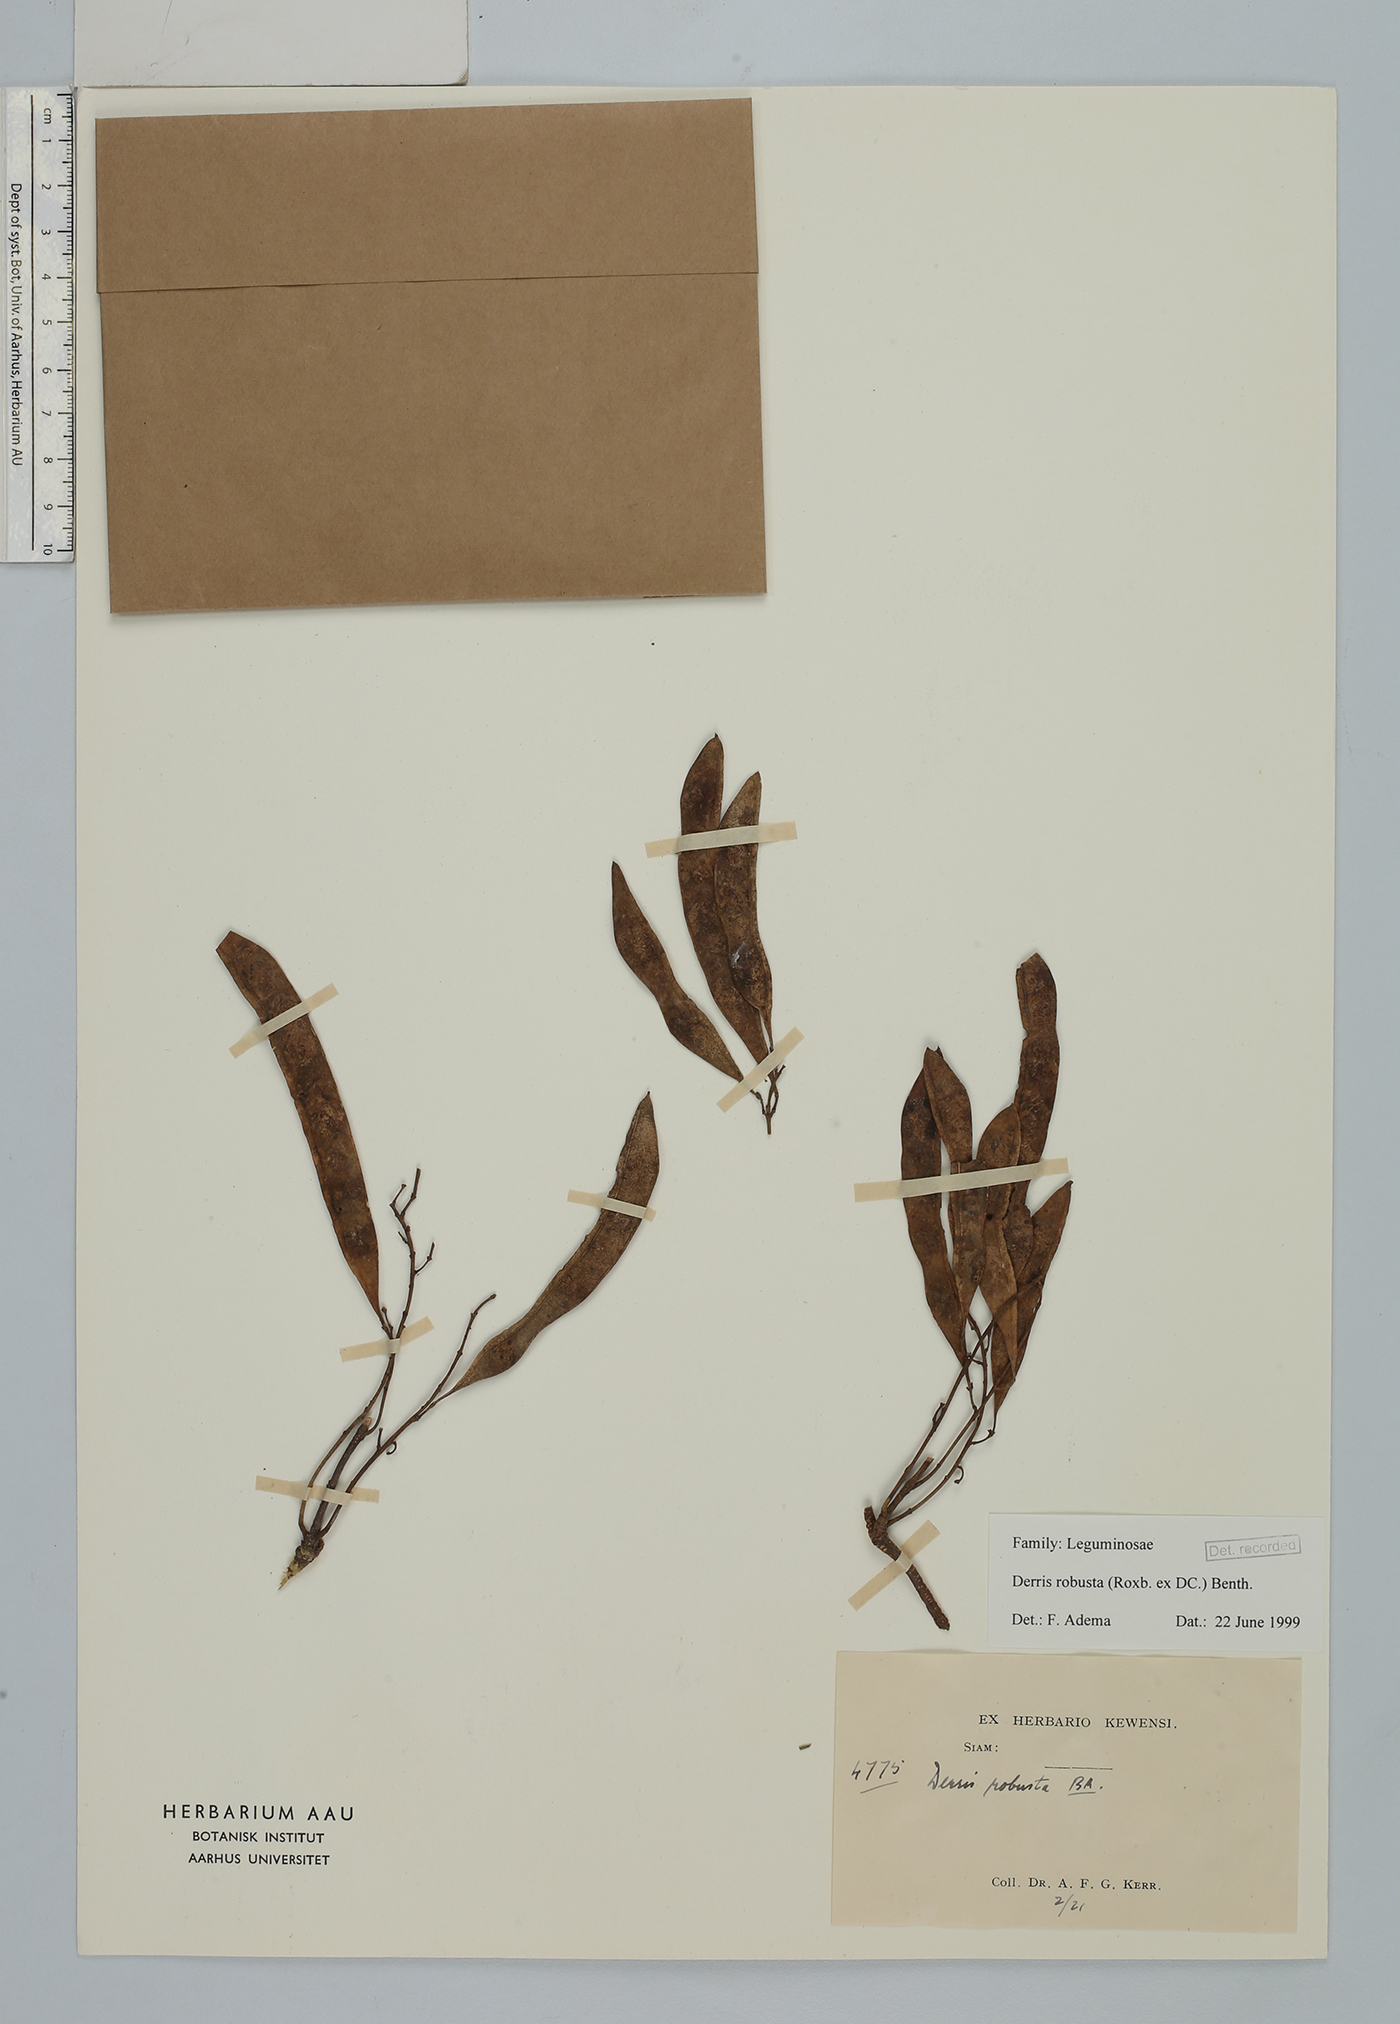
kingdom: Plantae
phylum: Tracheophyta
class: Magnoliopsida
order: Fabales
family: Fabaceae
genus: Brachypterum
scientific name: Brachypterum robustum
